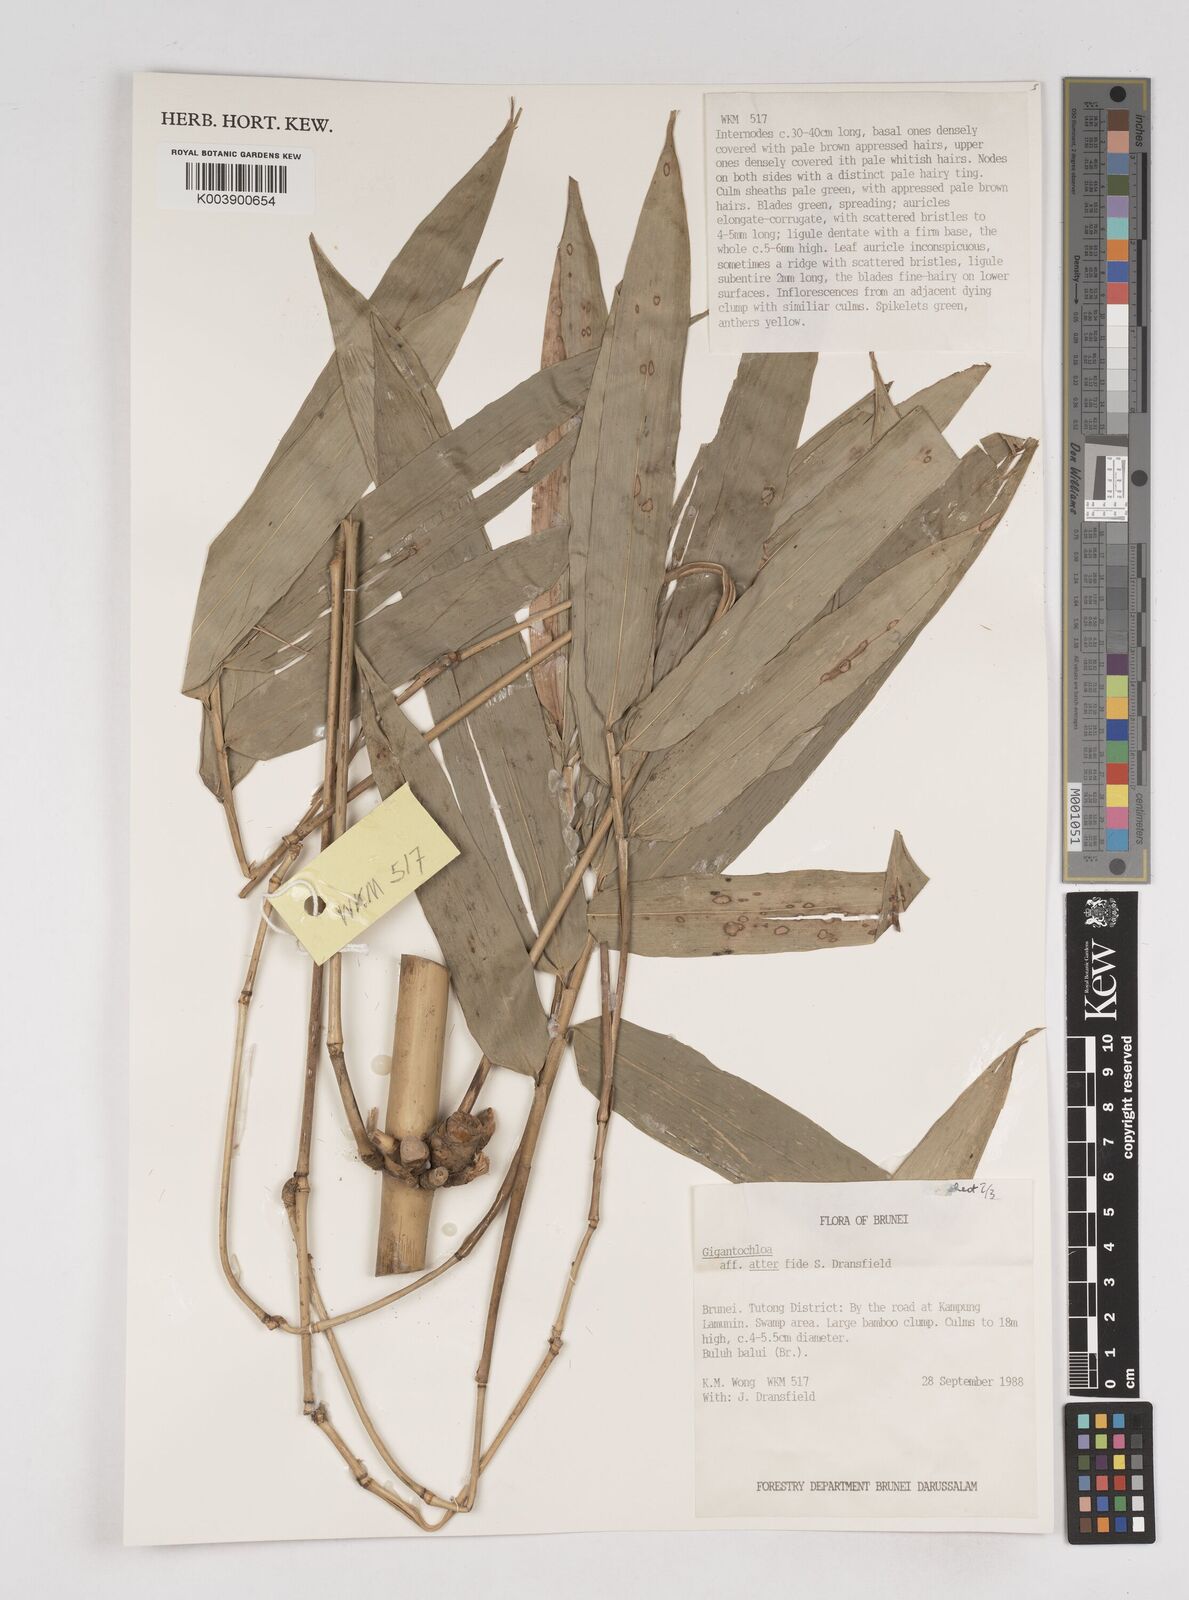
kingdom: Plantae
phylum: Tracheophyta
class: Liliopsida
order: Poales
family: Poaceae
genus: Gigantochloa
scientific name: Gigantochloa
